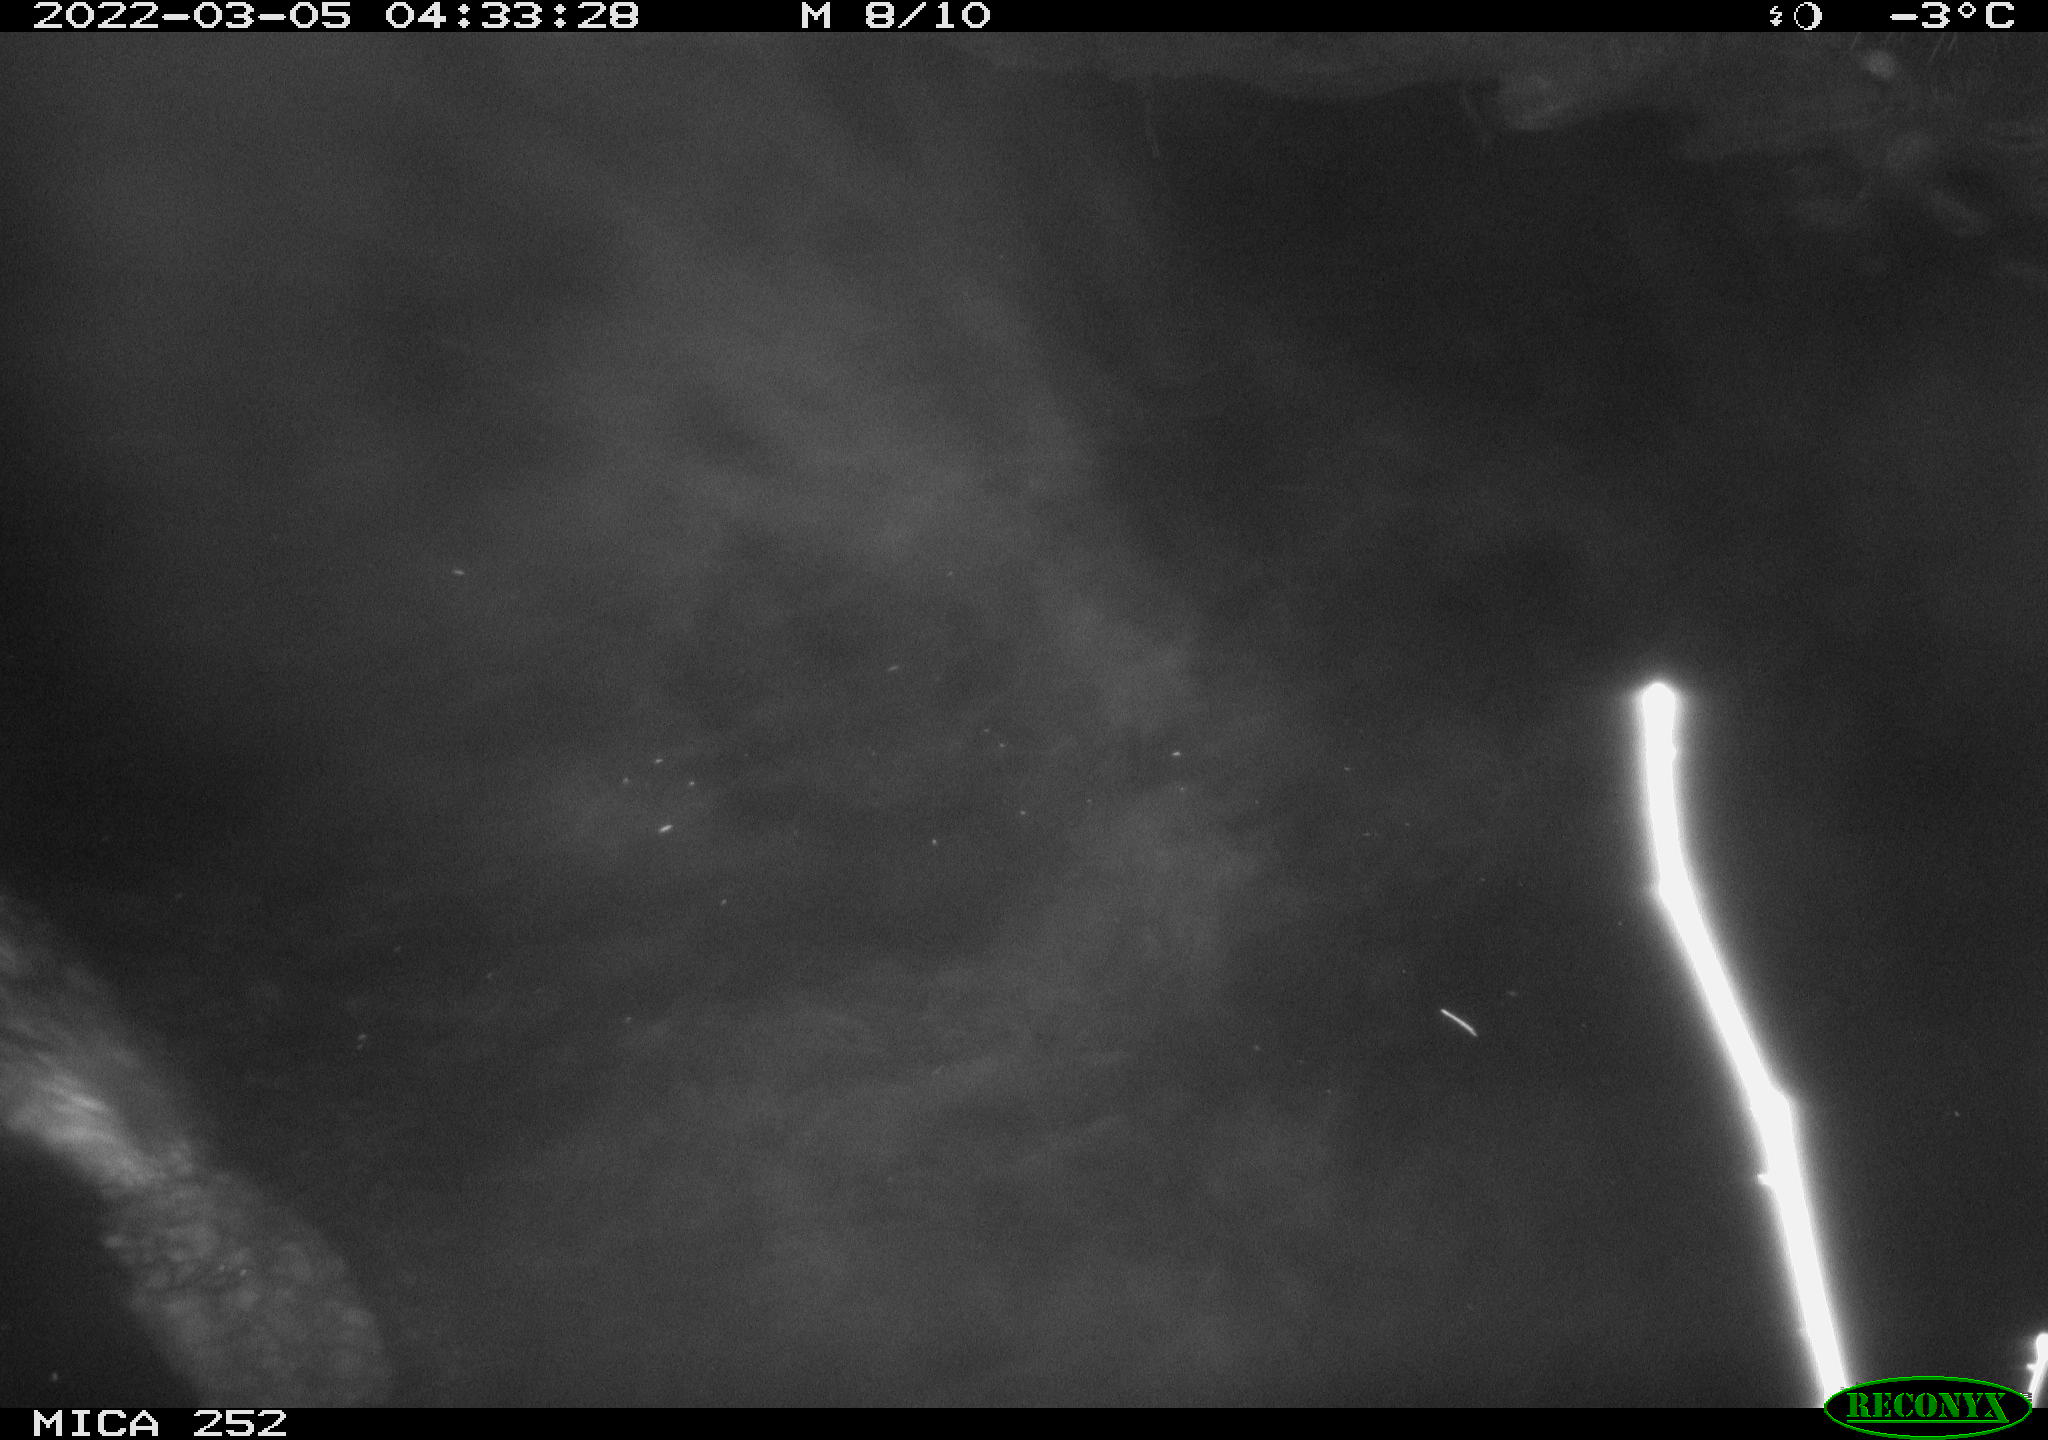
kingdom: Animalia
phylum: Chordata
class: Mammalia
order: Rodentia
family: Castoridae
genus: Castor
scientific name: Castor fiber
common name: Eurasian beaver
